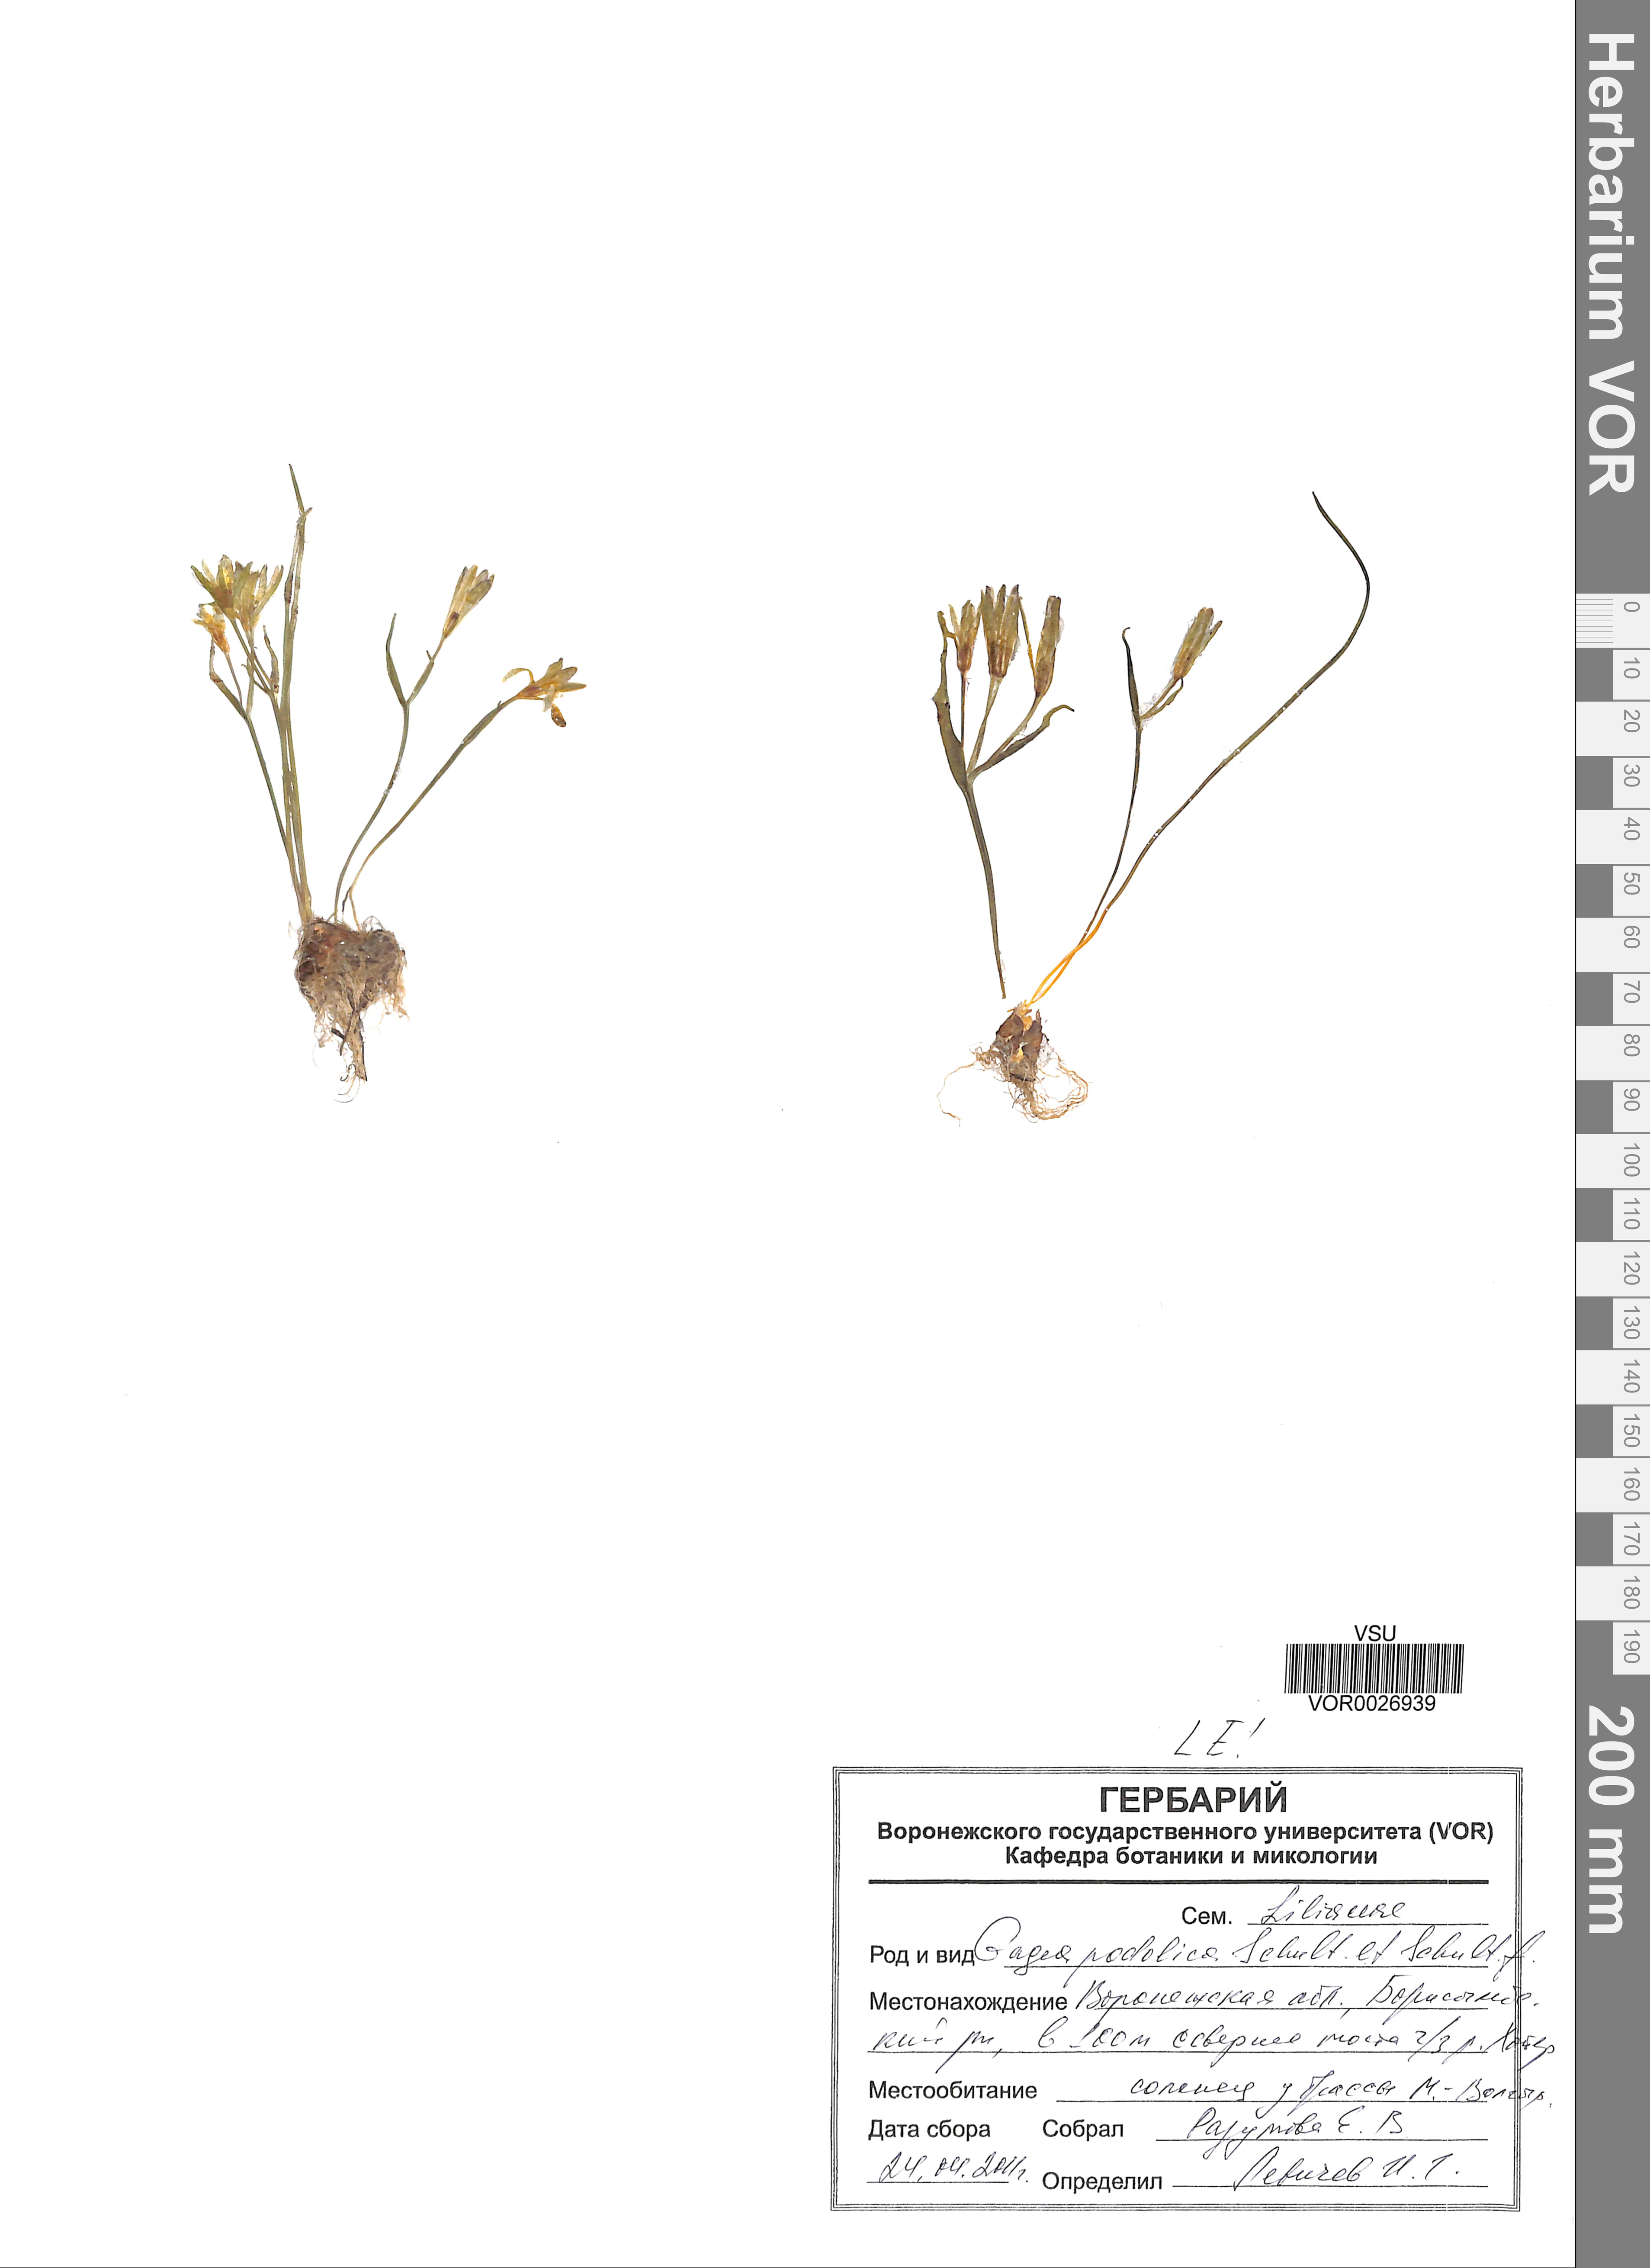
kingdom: Plantae
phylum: Tracheophyta
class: Liliopsida
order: Liliales
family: Liliaceae
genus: Gagea
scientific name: Gagea podolica
